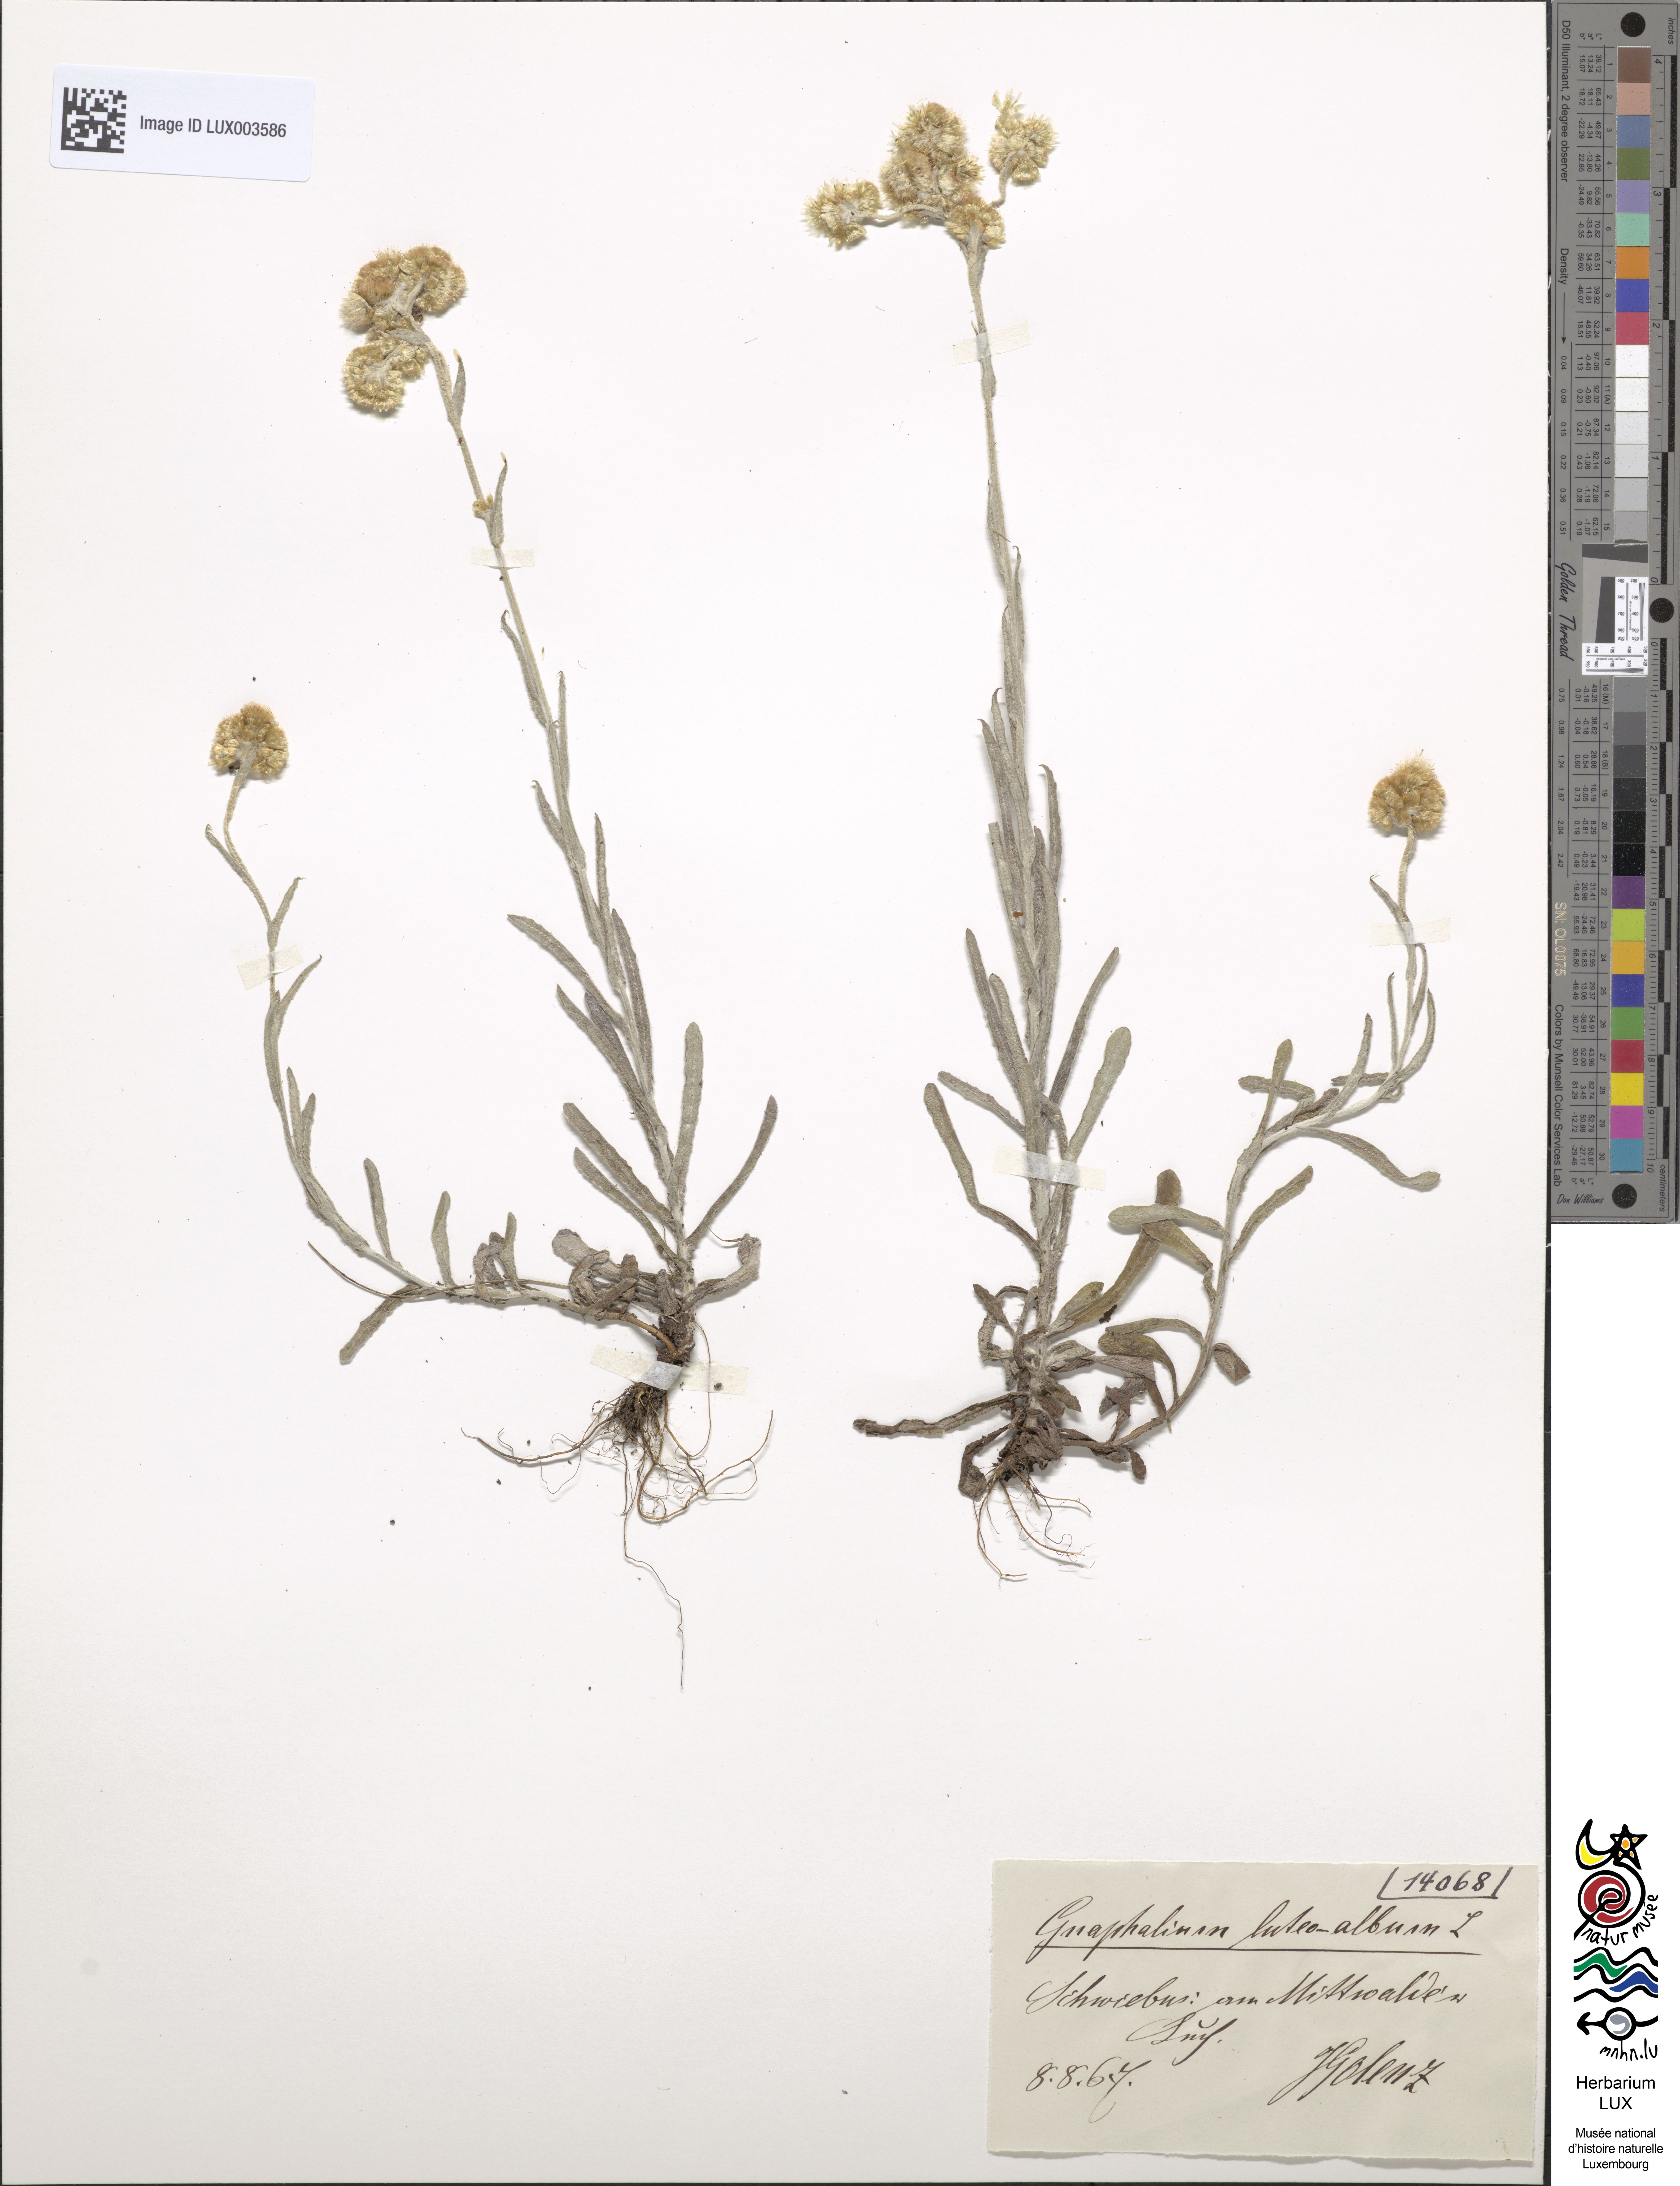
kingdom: Plantae
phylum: Tracheophyta
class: Magnoliopsida
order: Asterales
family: Asteraceae
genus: Helichrysum
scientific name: Helichrysum luteoalbum
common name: Daisy
